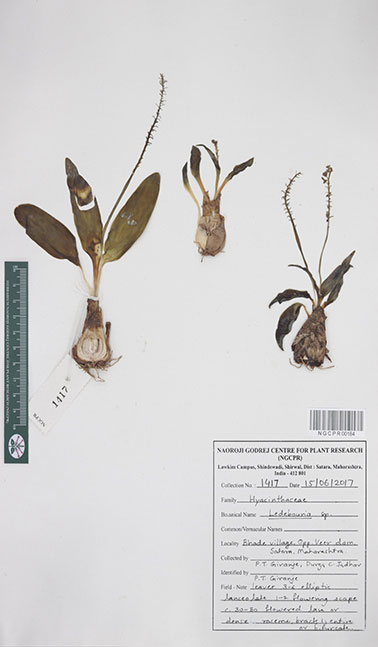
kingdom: Plantae
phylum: Tracheophyta
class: Liliopsida
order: Asparagales
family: Asparagaceae
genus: Ledebouria
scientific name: Ledebouria
